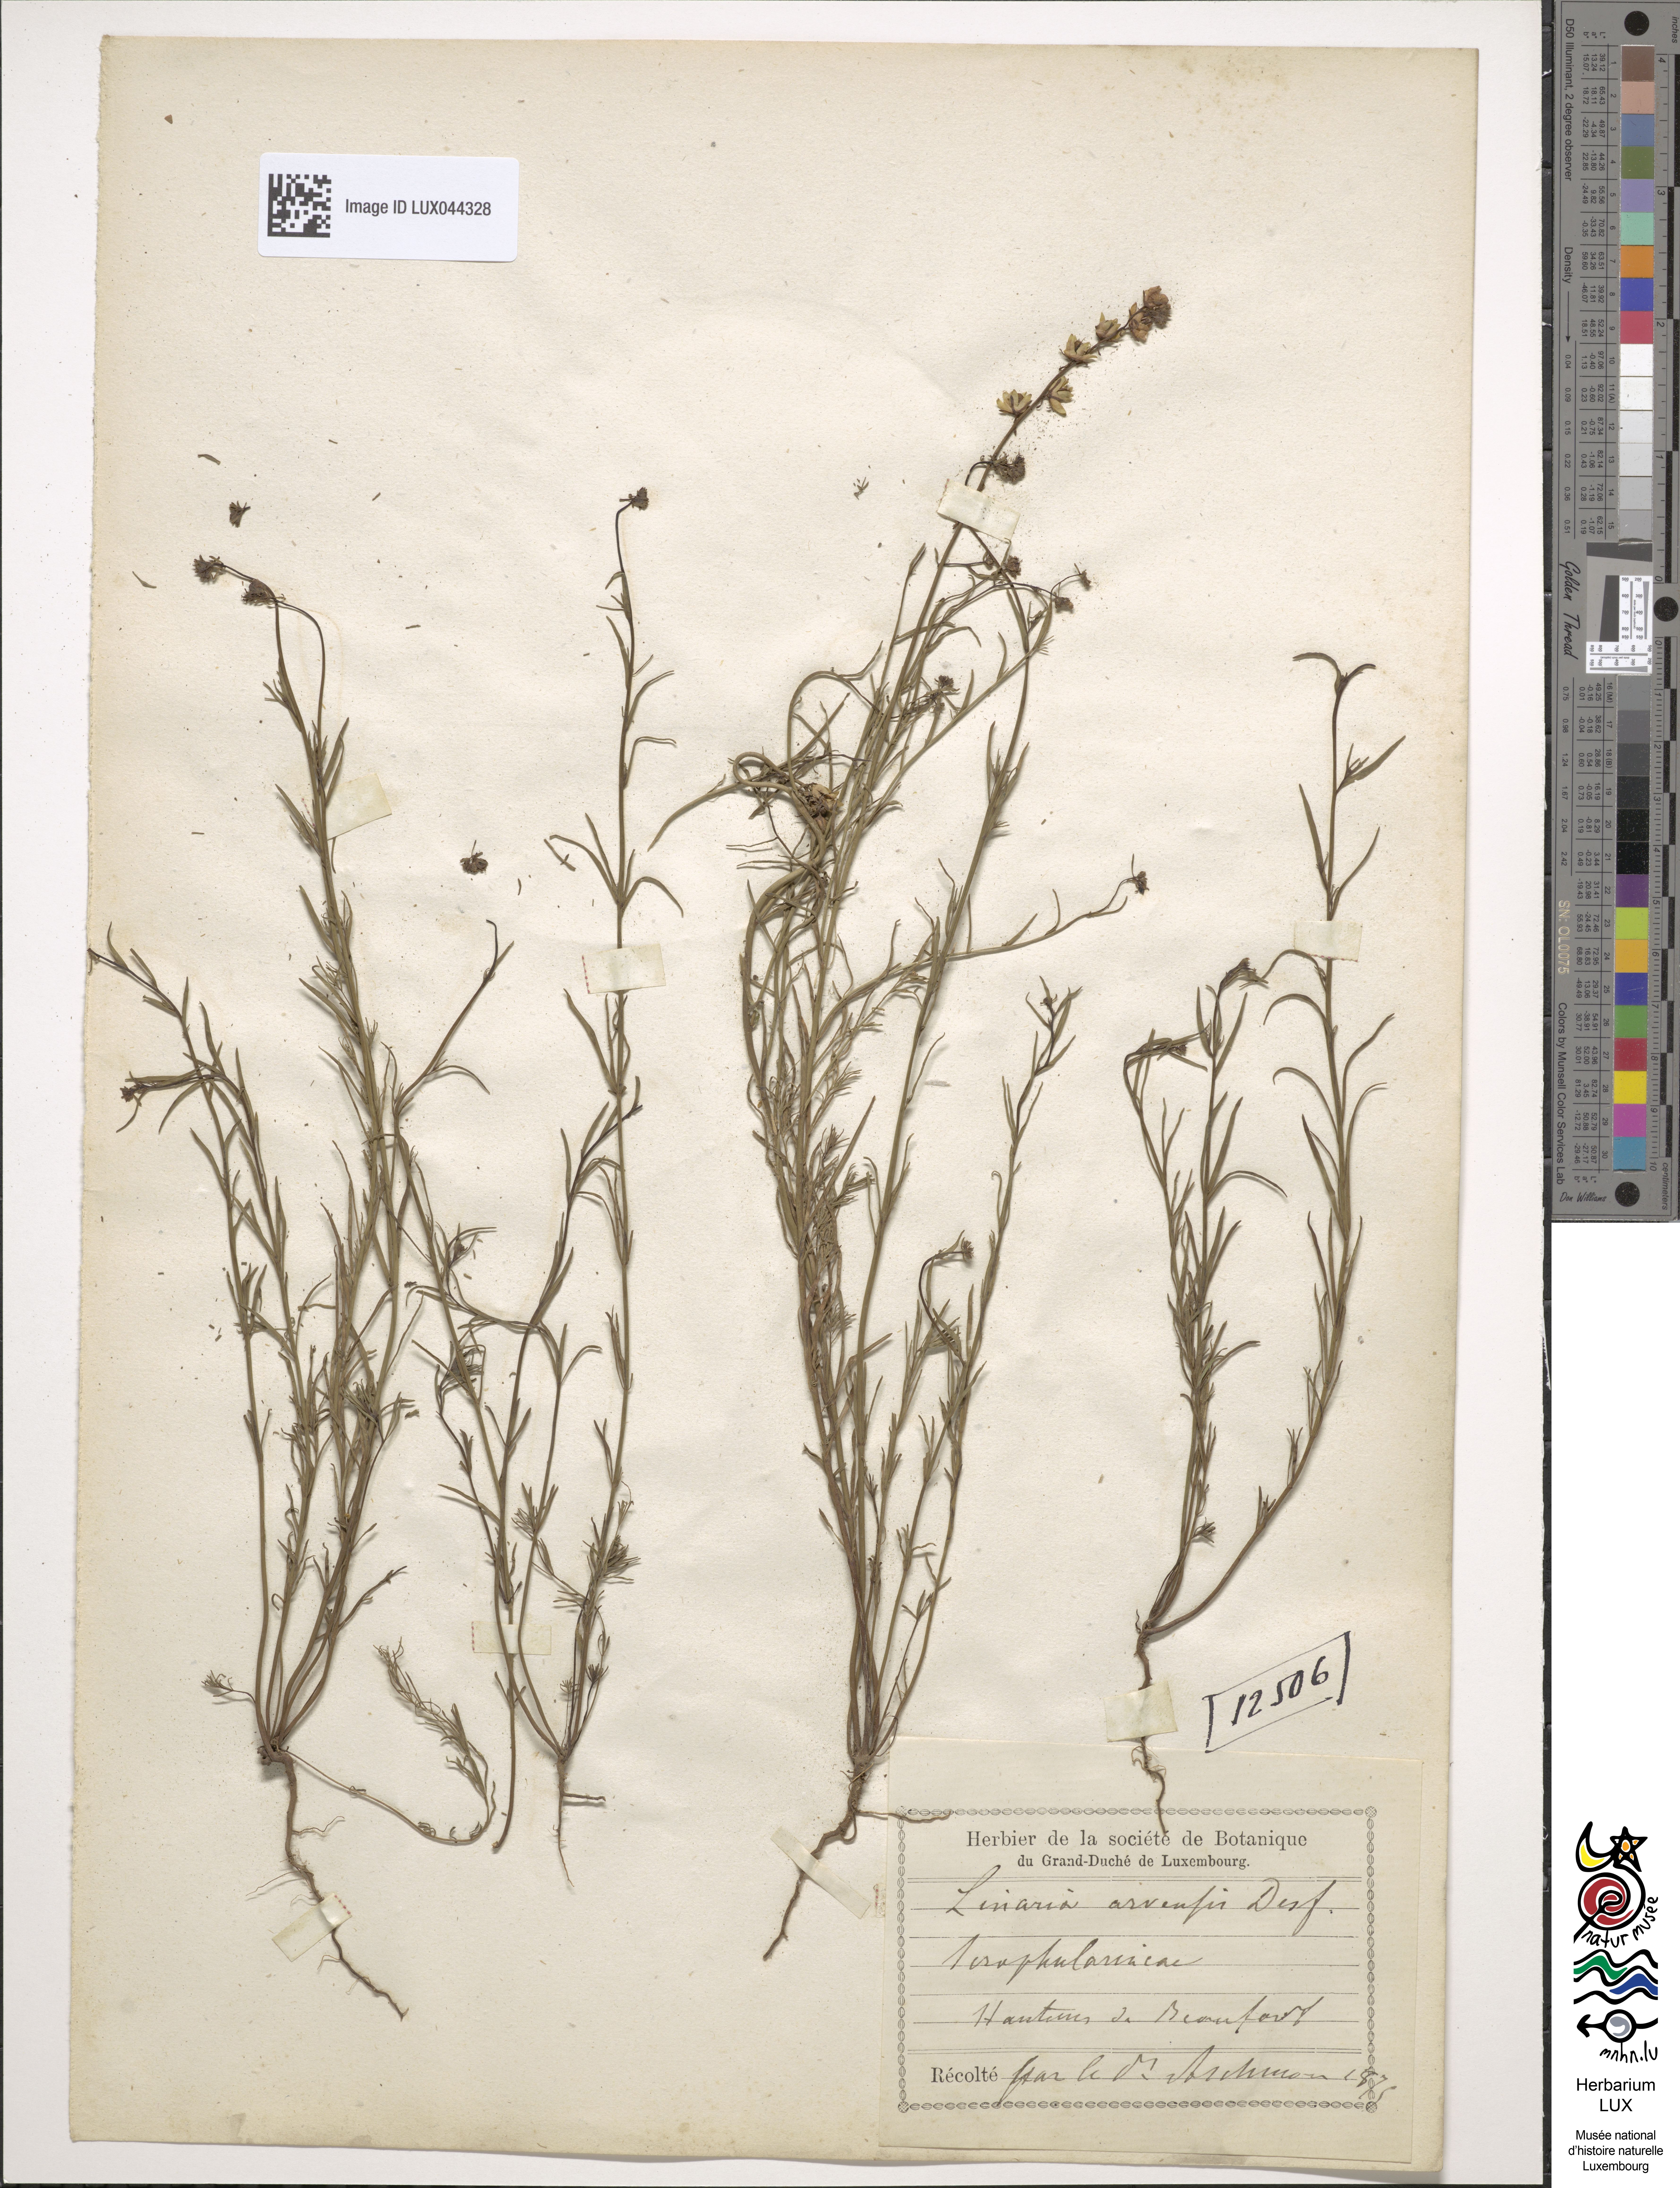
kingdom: Plantae
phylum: Tracheophyta
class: Magnoliopsida
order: Lamiales
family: Plantaginaceae
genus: Linaria
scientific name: Linaria arvensis
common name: Corn toadflax
